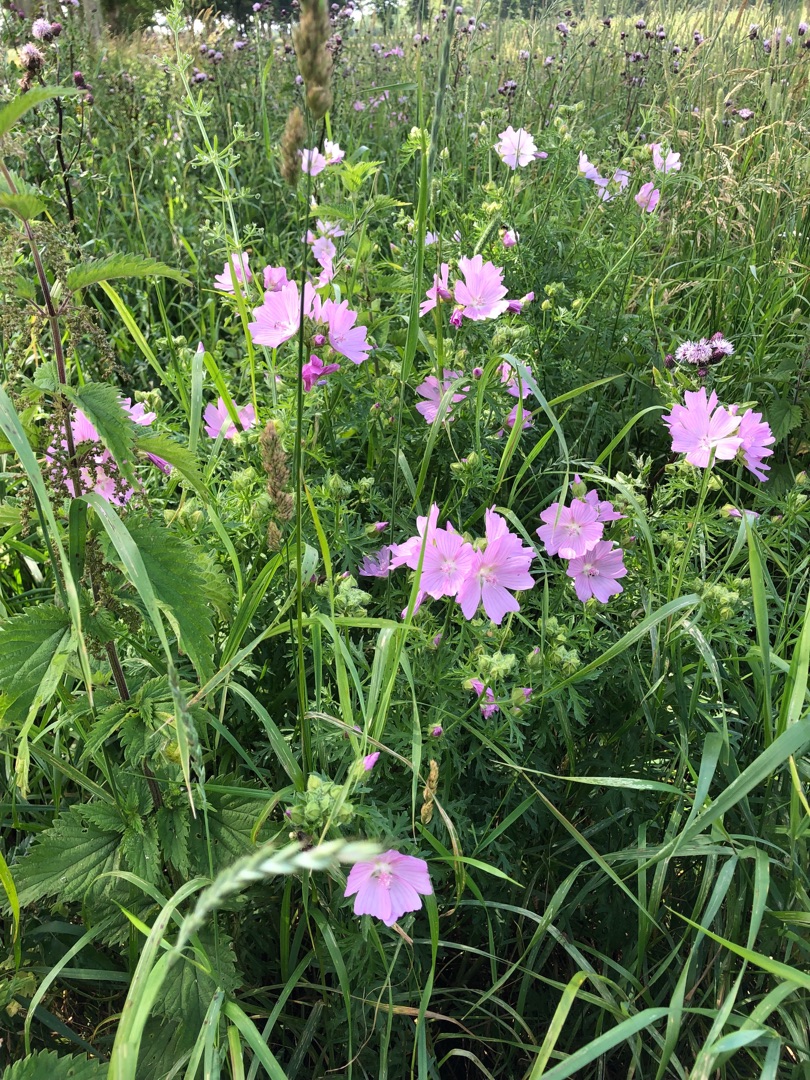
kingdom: Plantae
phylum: Tracheophyta
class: Magnoliopsida
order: Malvales
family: Malvaceae
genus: Malva
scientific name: Malva moschata
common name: Moskus-katost
